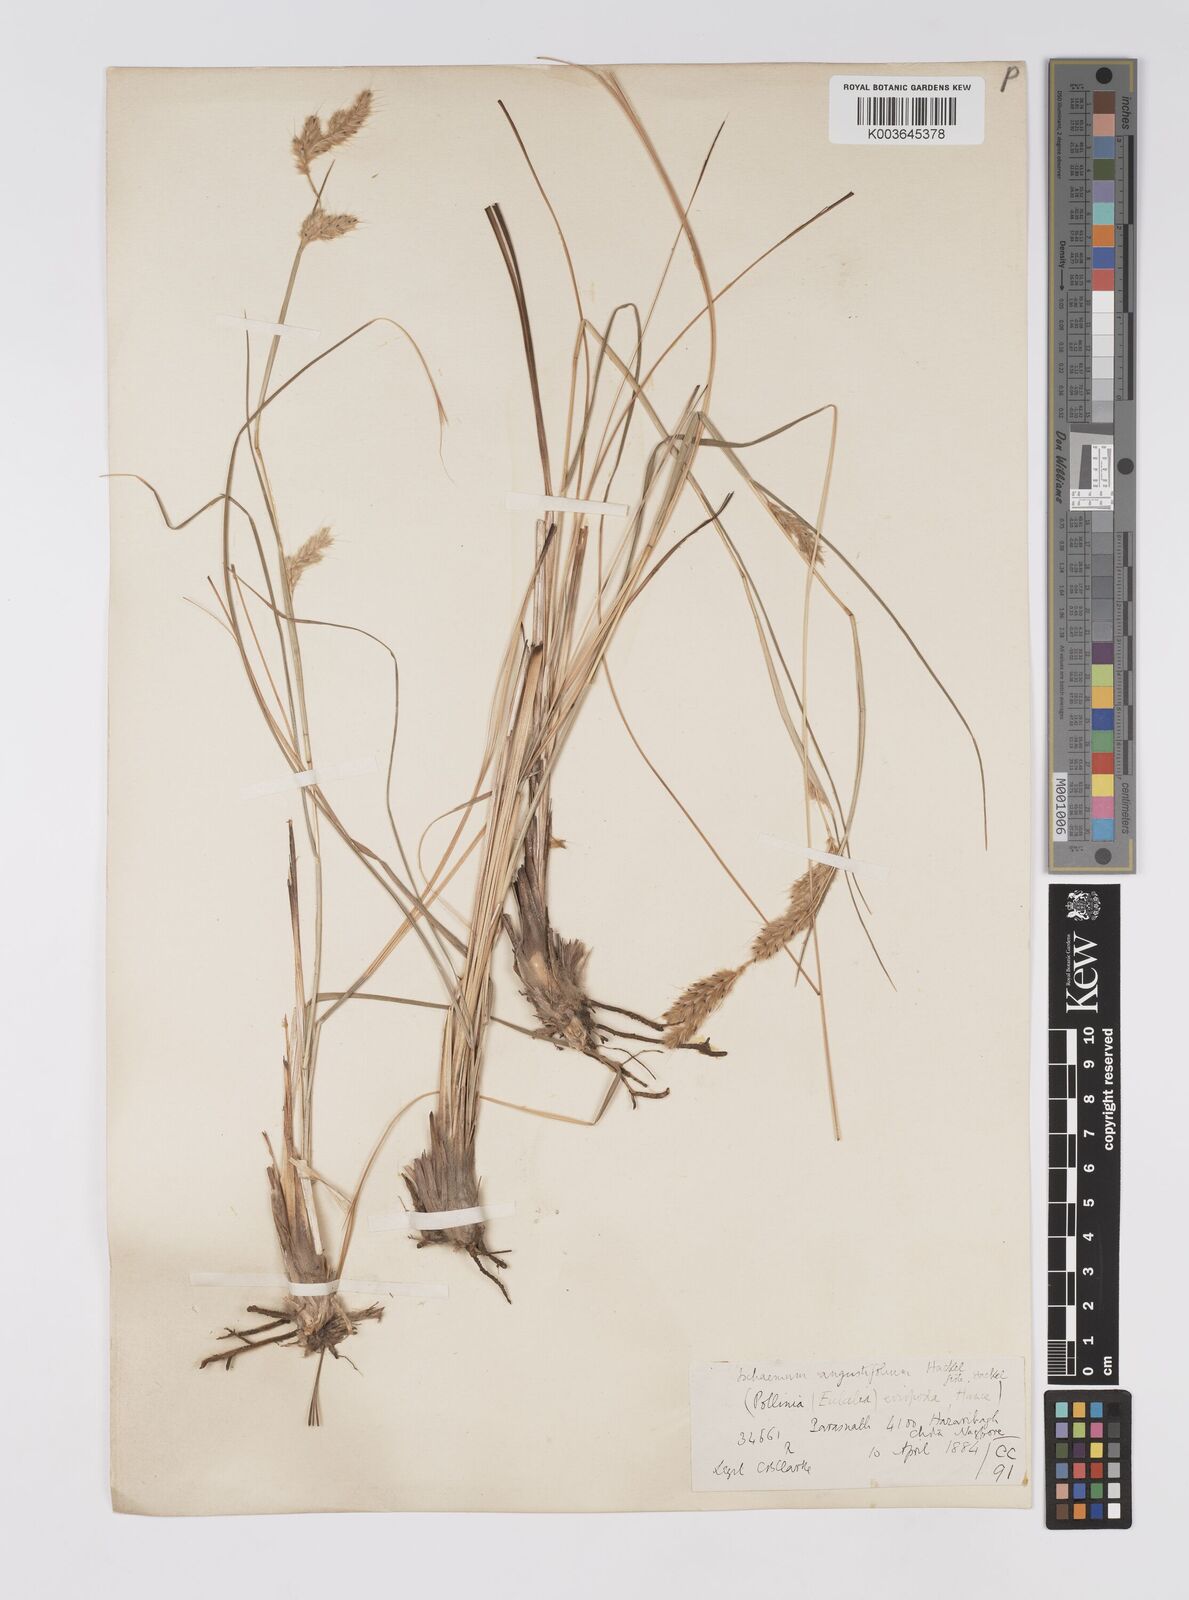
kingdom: Plantae
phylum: Tracheophyta
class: Liliopsida
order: Poales
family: Poaceae
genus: Eulaliopsis
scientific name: Eulaliopsis binata
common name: Baib grass
